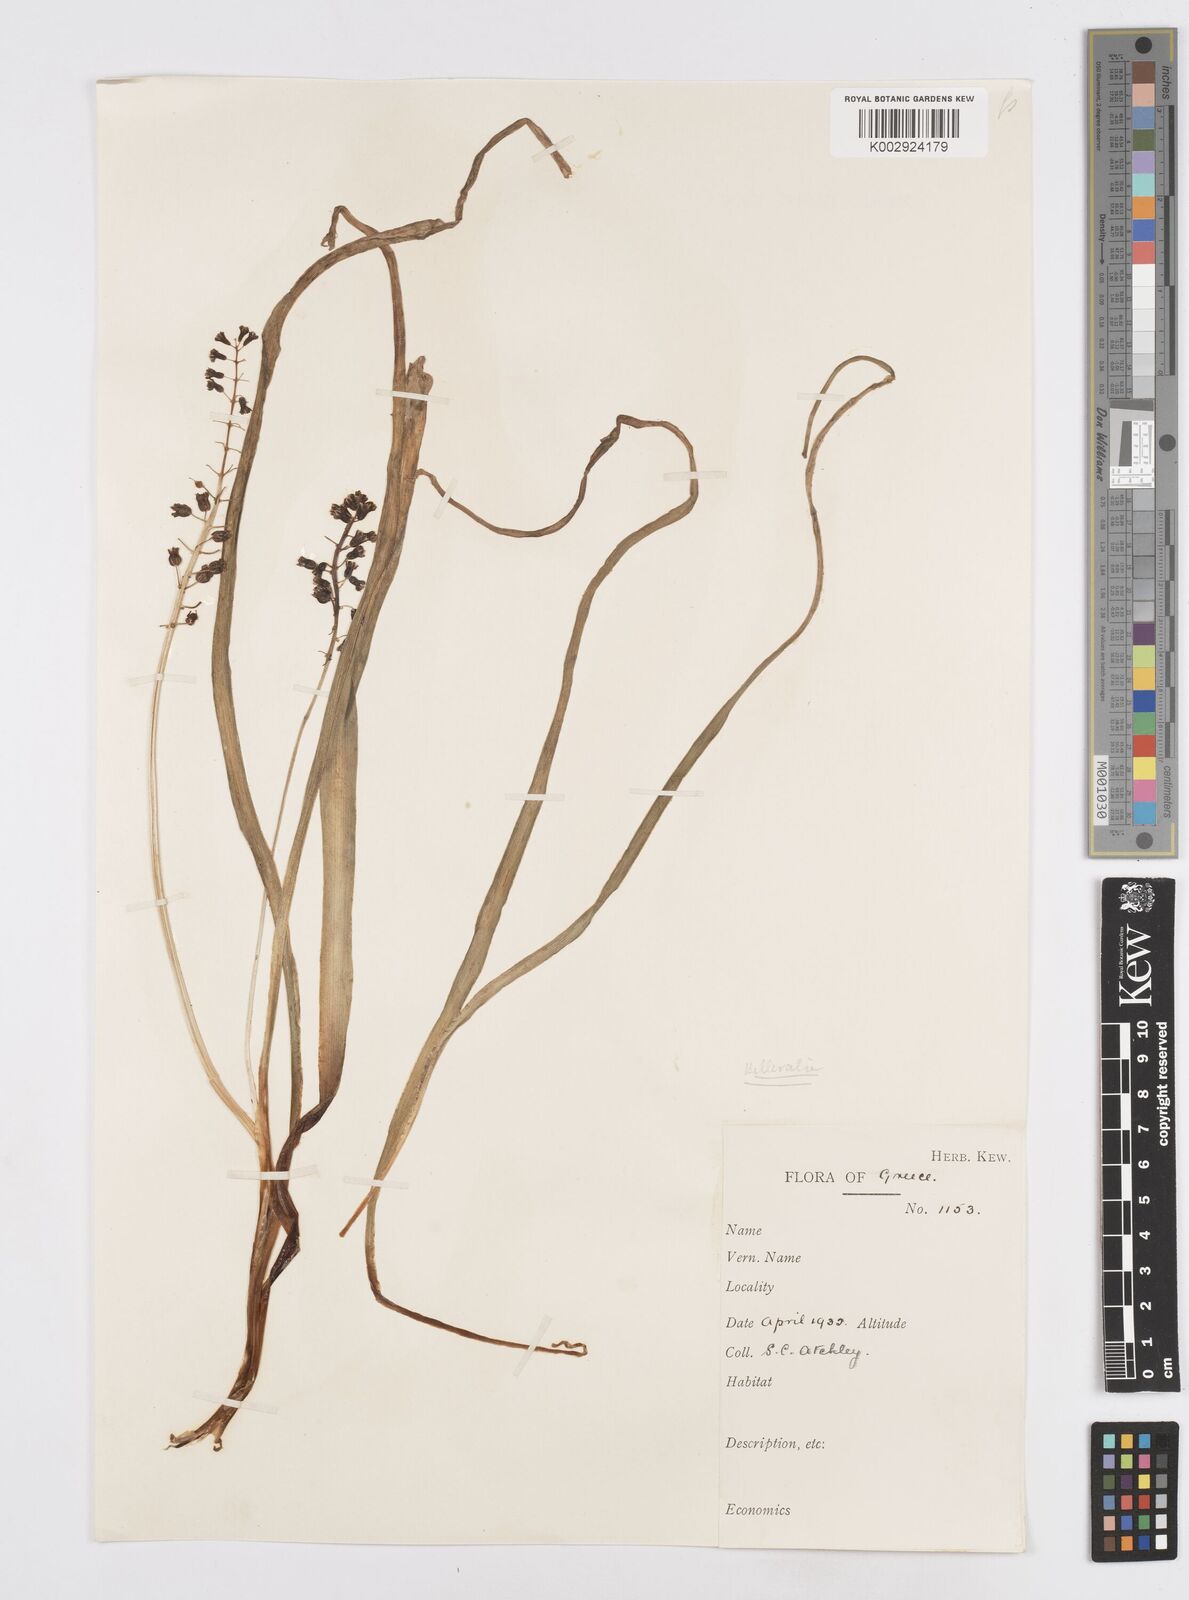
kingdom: Plantae
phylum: Tracheophyta
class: Liliopsida
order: Asparagales
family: Asparagaceae
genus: Bellevalia
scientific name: Bellevalia
